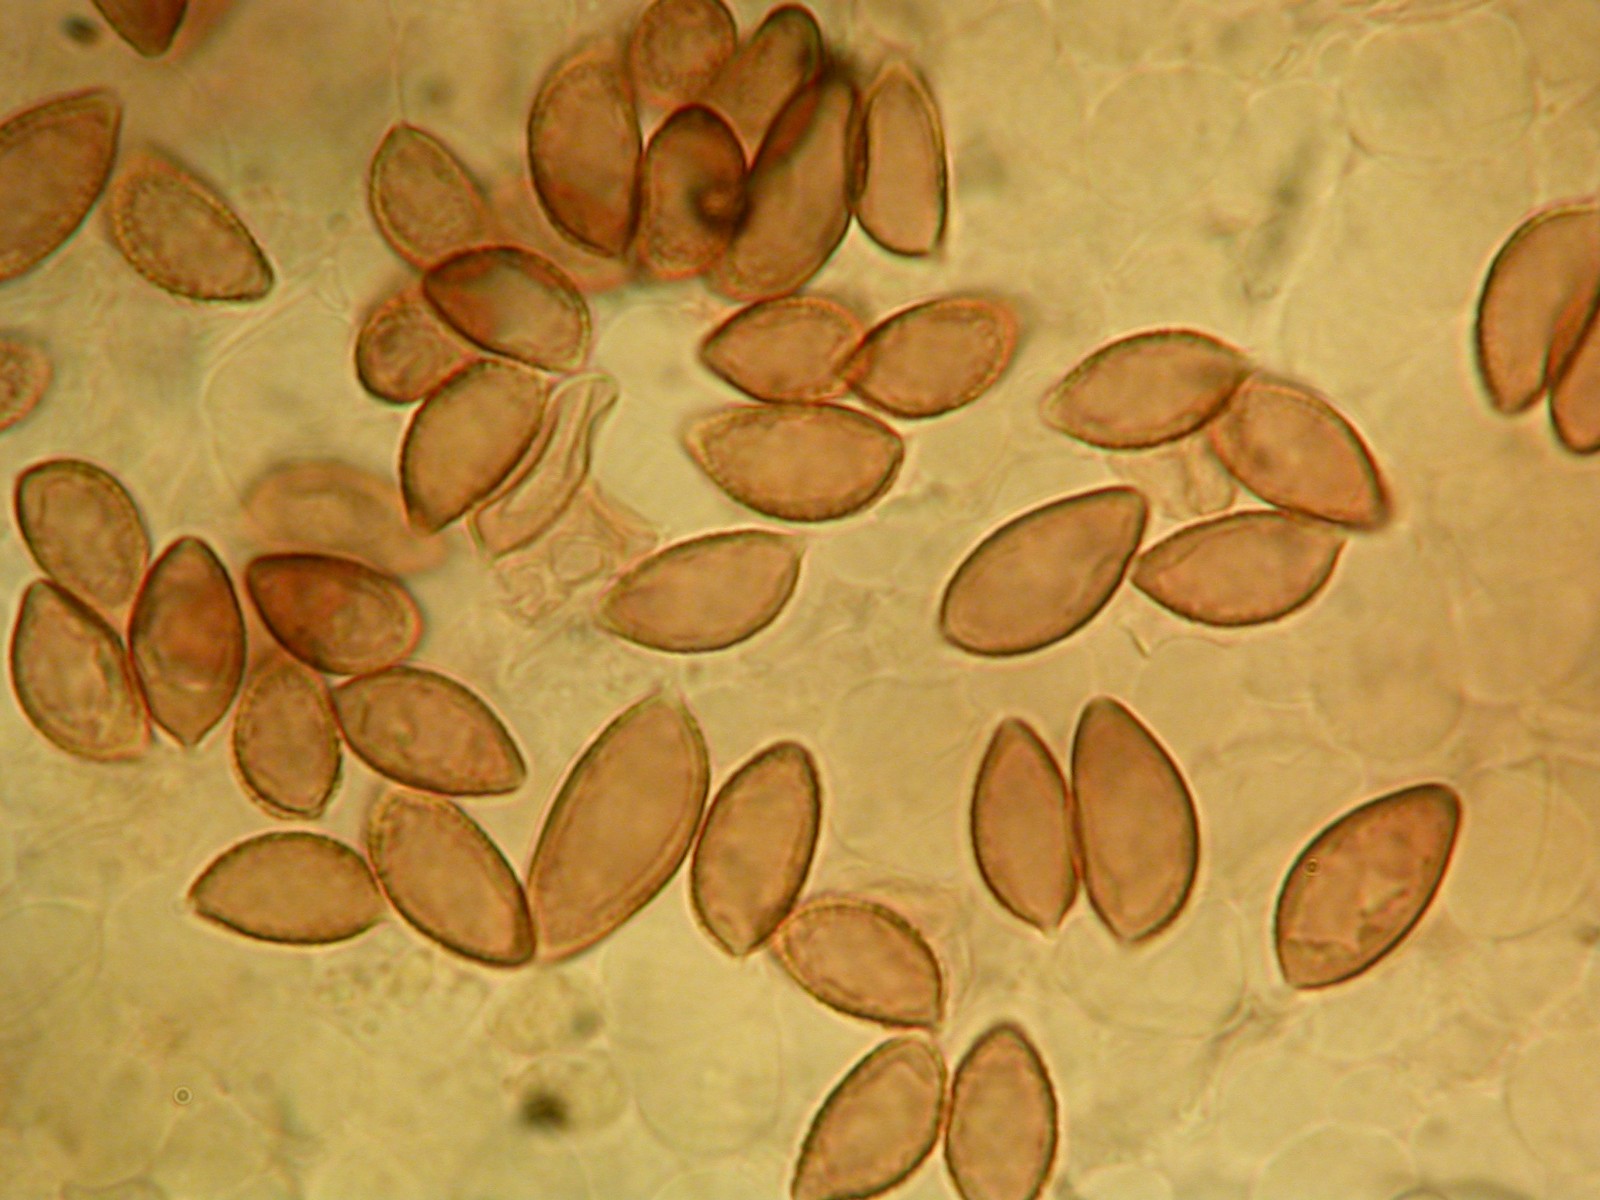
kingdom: Fungi
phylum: Basidiomycota
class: Agaricomycetes
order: Agaricales
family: Hymenogastraceae
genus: Hebeloma
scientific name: Hebeloma
